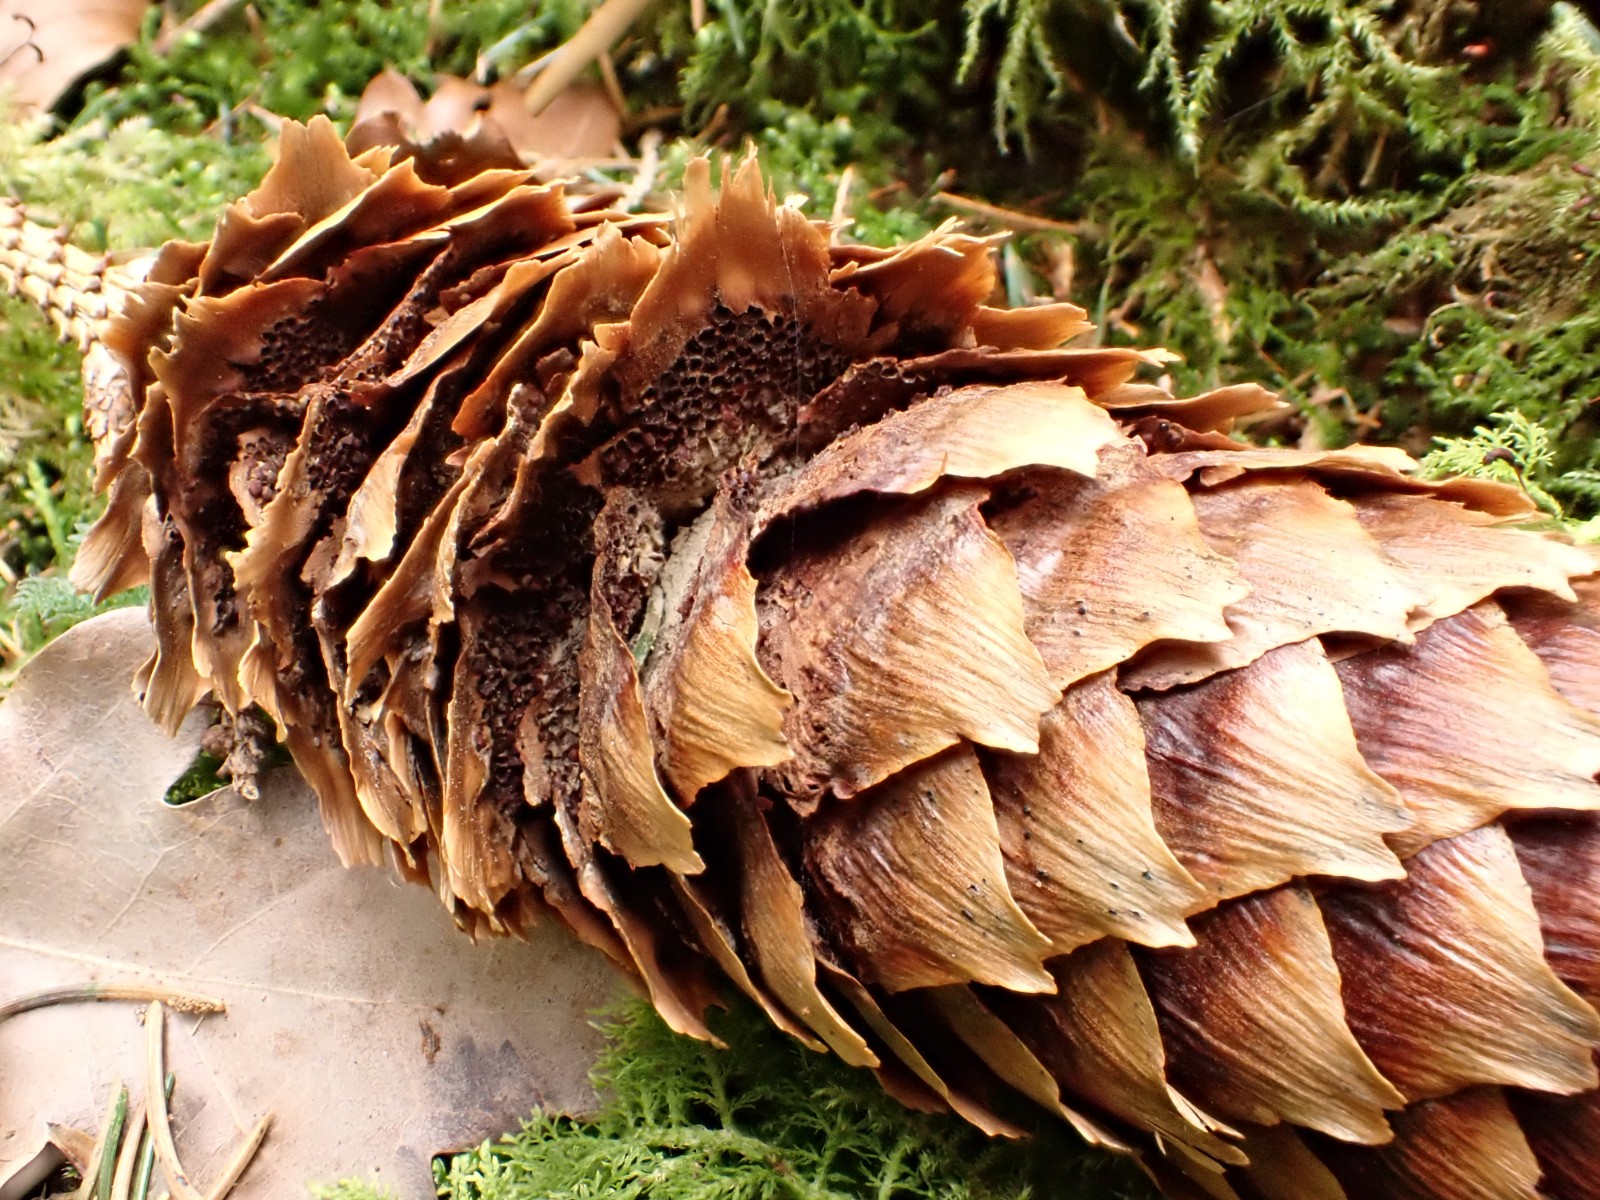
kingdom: Fungi
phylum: Basidiomycota
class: Pucciniomycetes
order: Pucciniales
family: Pucciniastraceae
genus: Thekopsora
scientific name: Thekopsora areolata
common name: grankogle-nålerust
